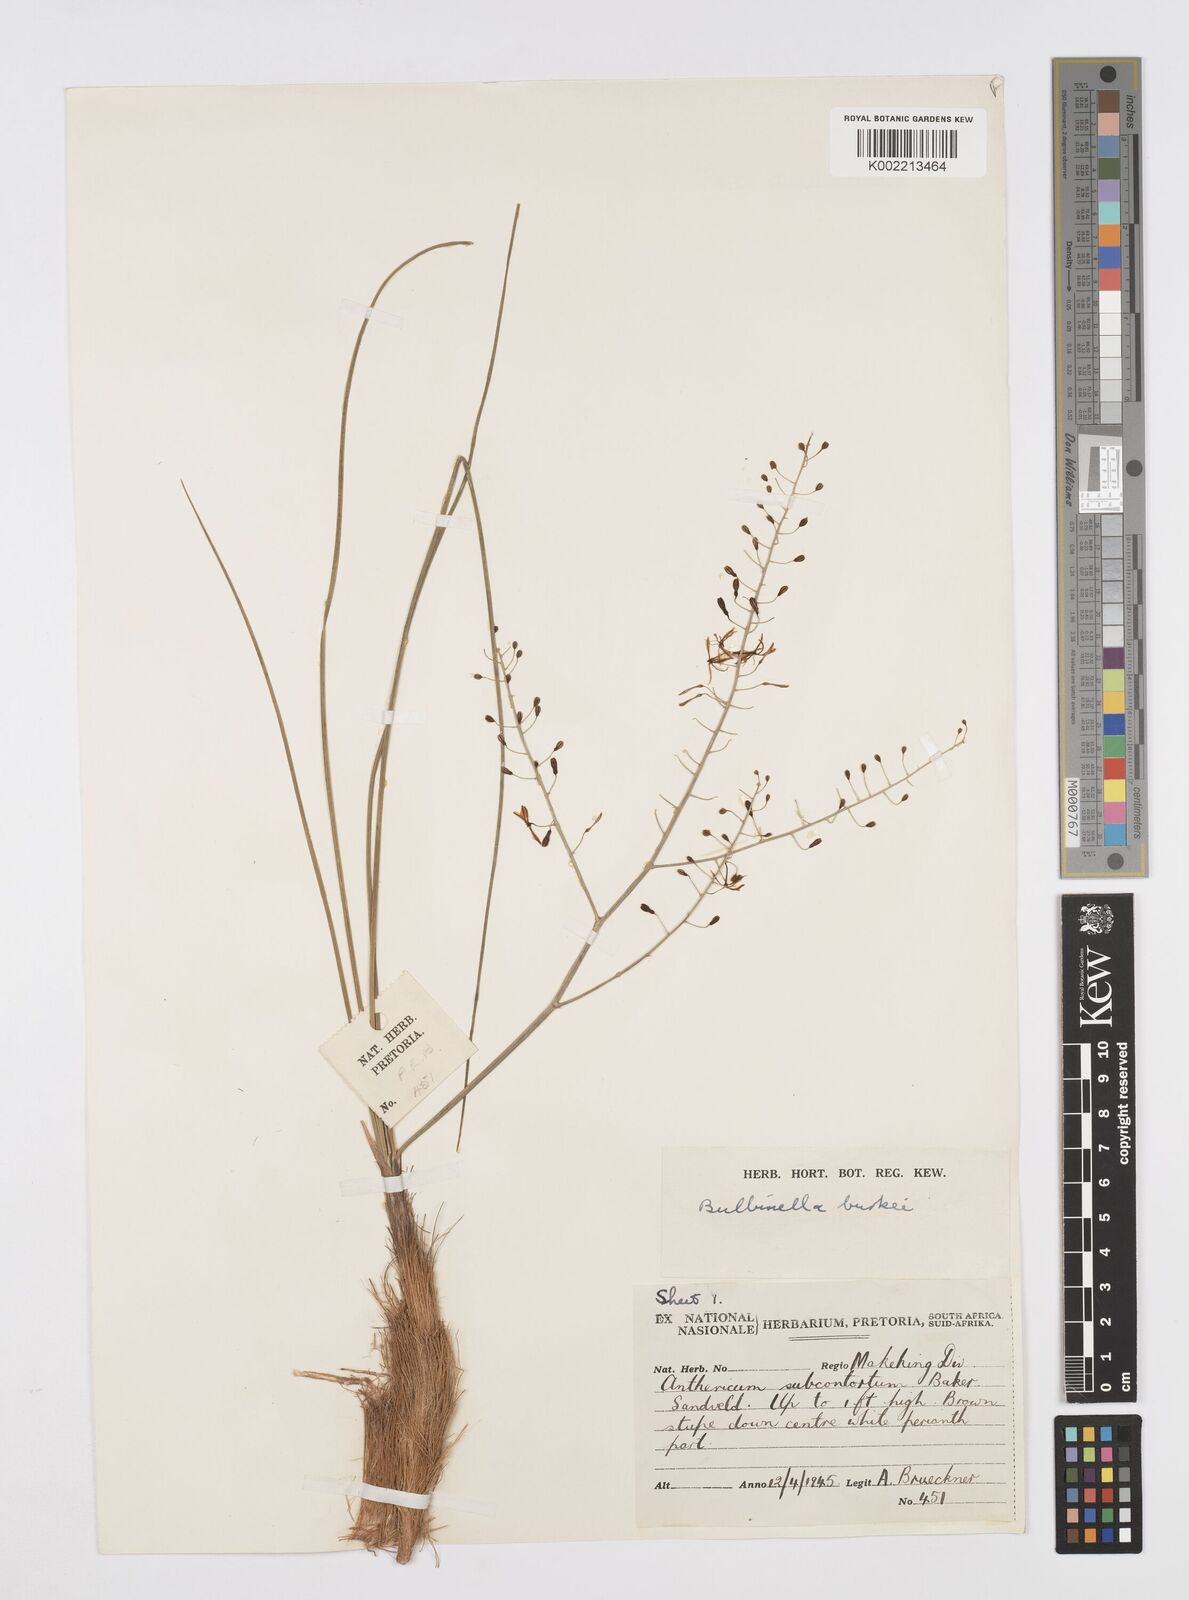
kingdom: Plantae
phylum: Tracheophyta
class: Liliopsida
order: Asparagales
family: Asphodelaceae
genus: Trachyandra
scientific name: Trachyandra burkei
